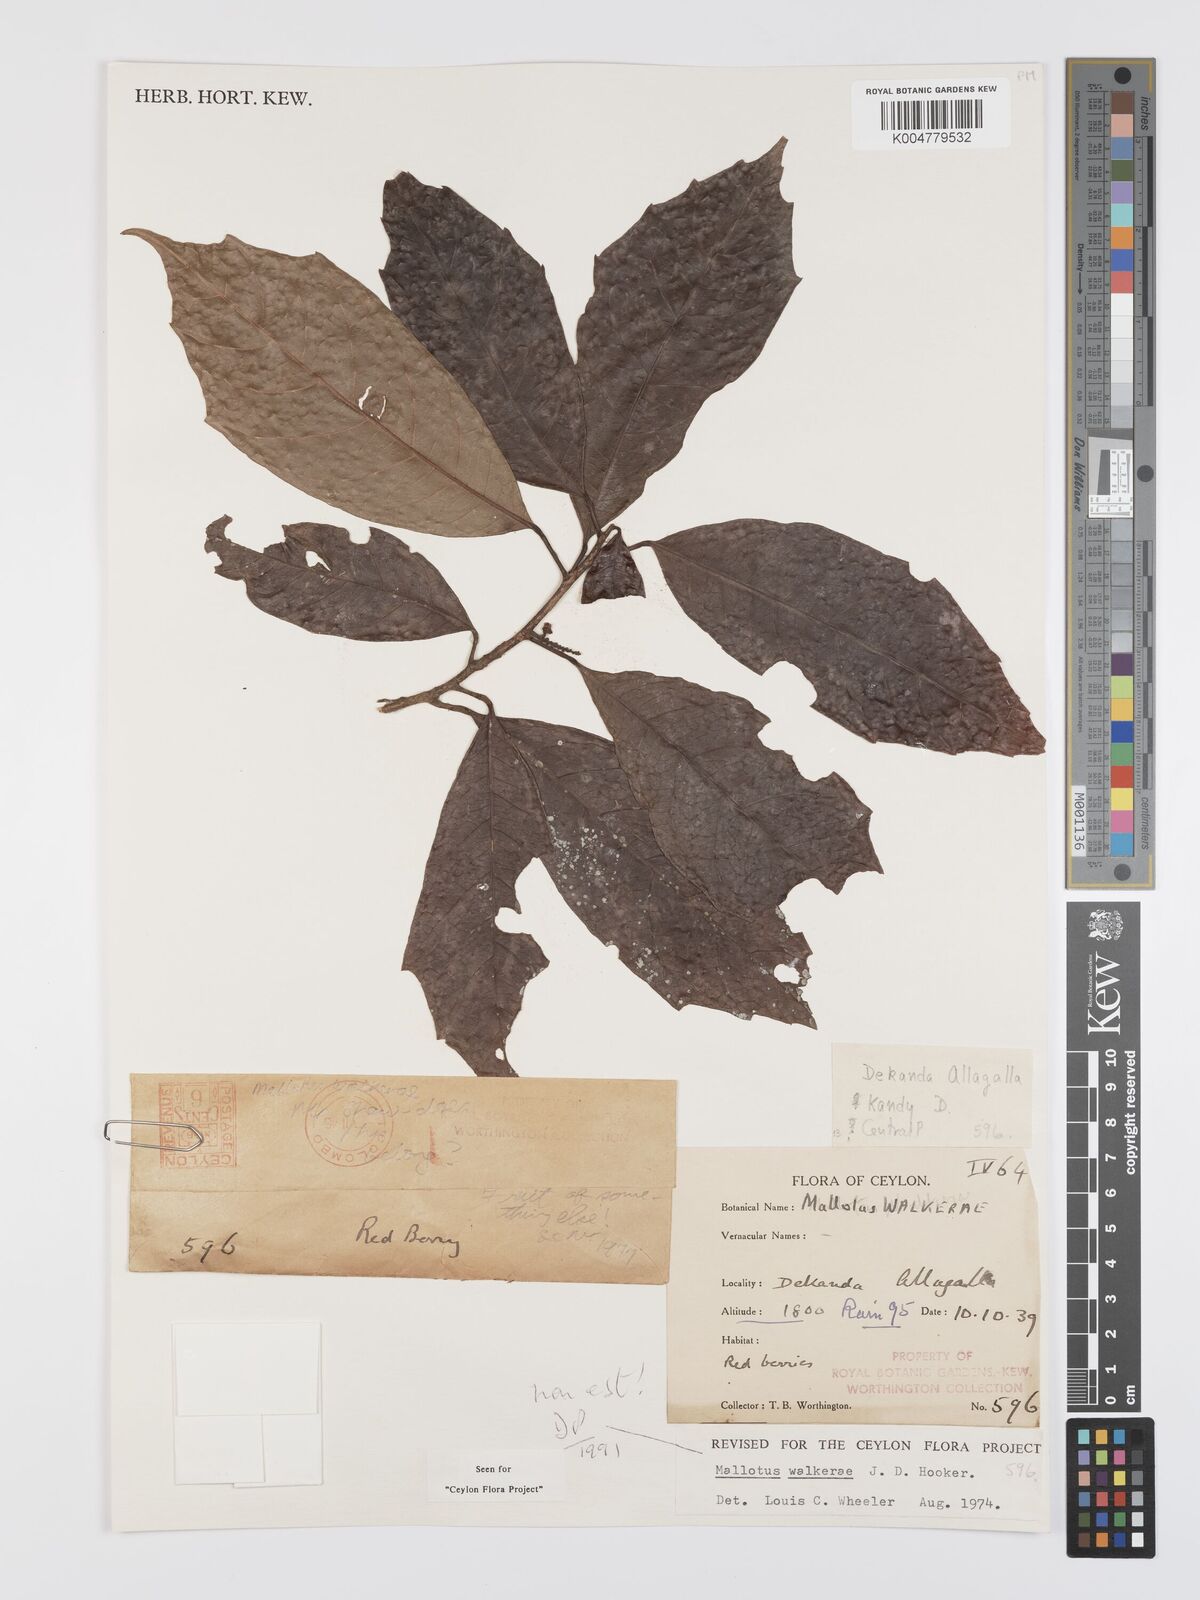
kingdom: Plantae
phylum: Tracheophyta
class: Magnoliopsida
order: Malpighiales
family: Euphorbiaceae
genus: Mallotus
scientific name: Mallotus resinosus
